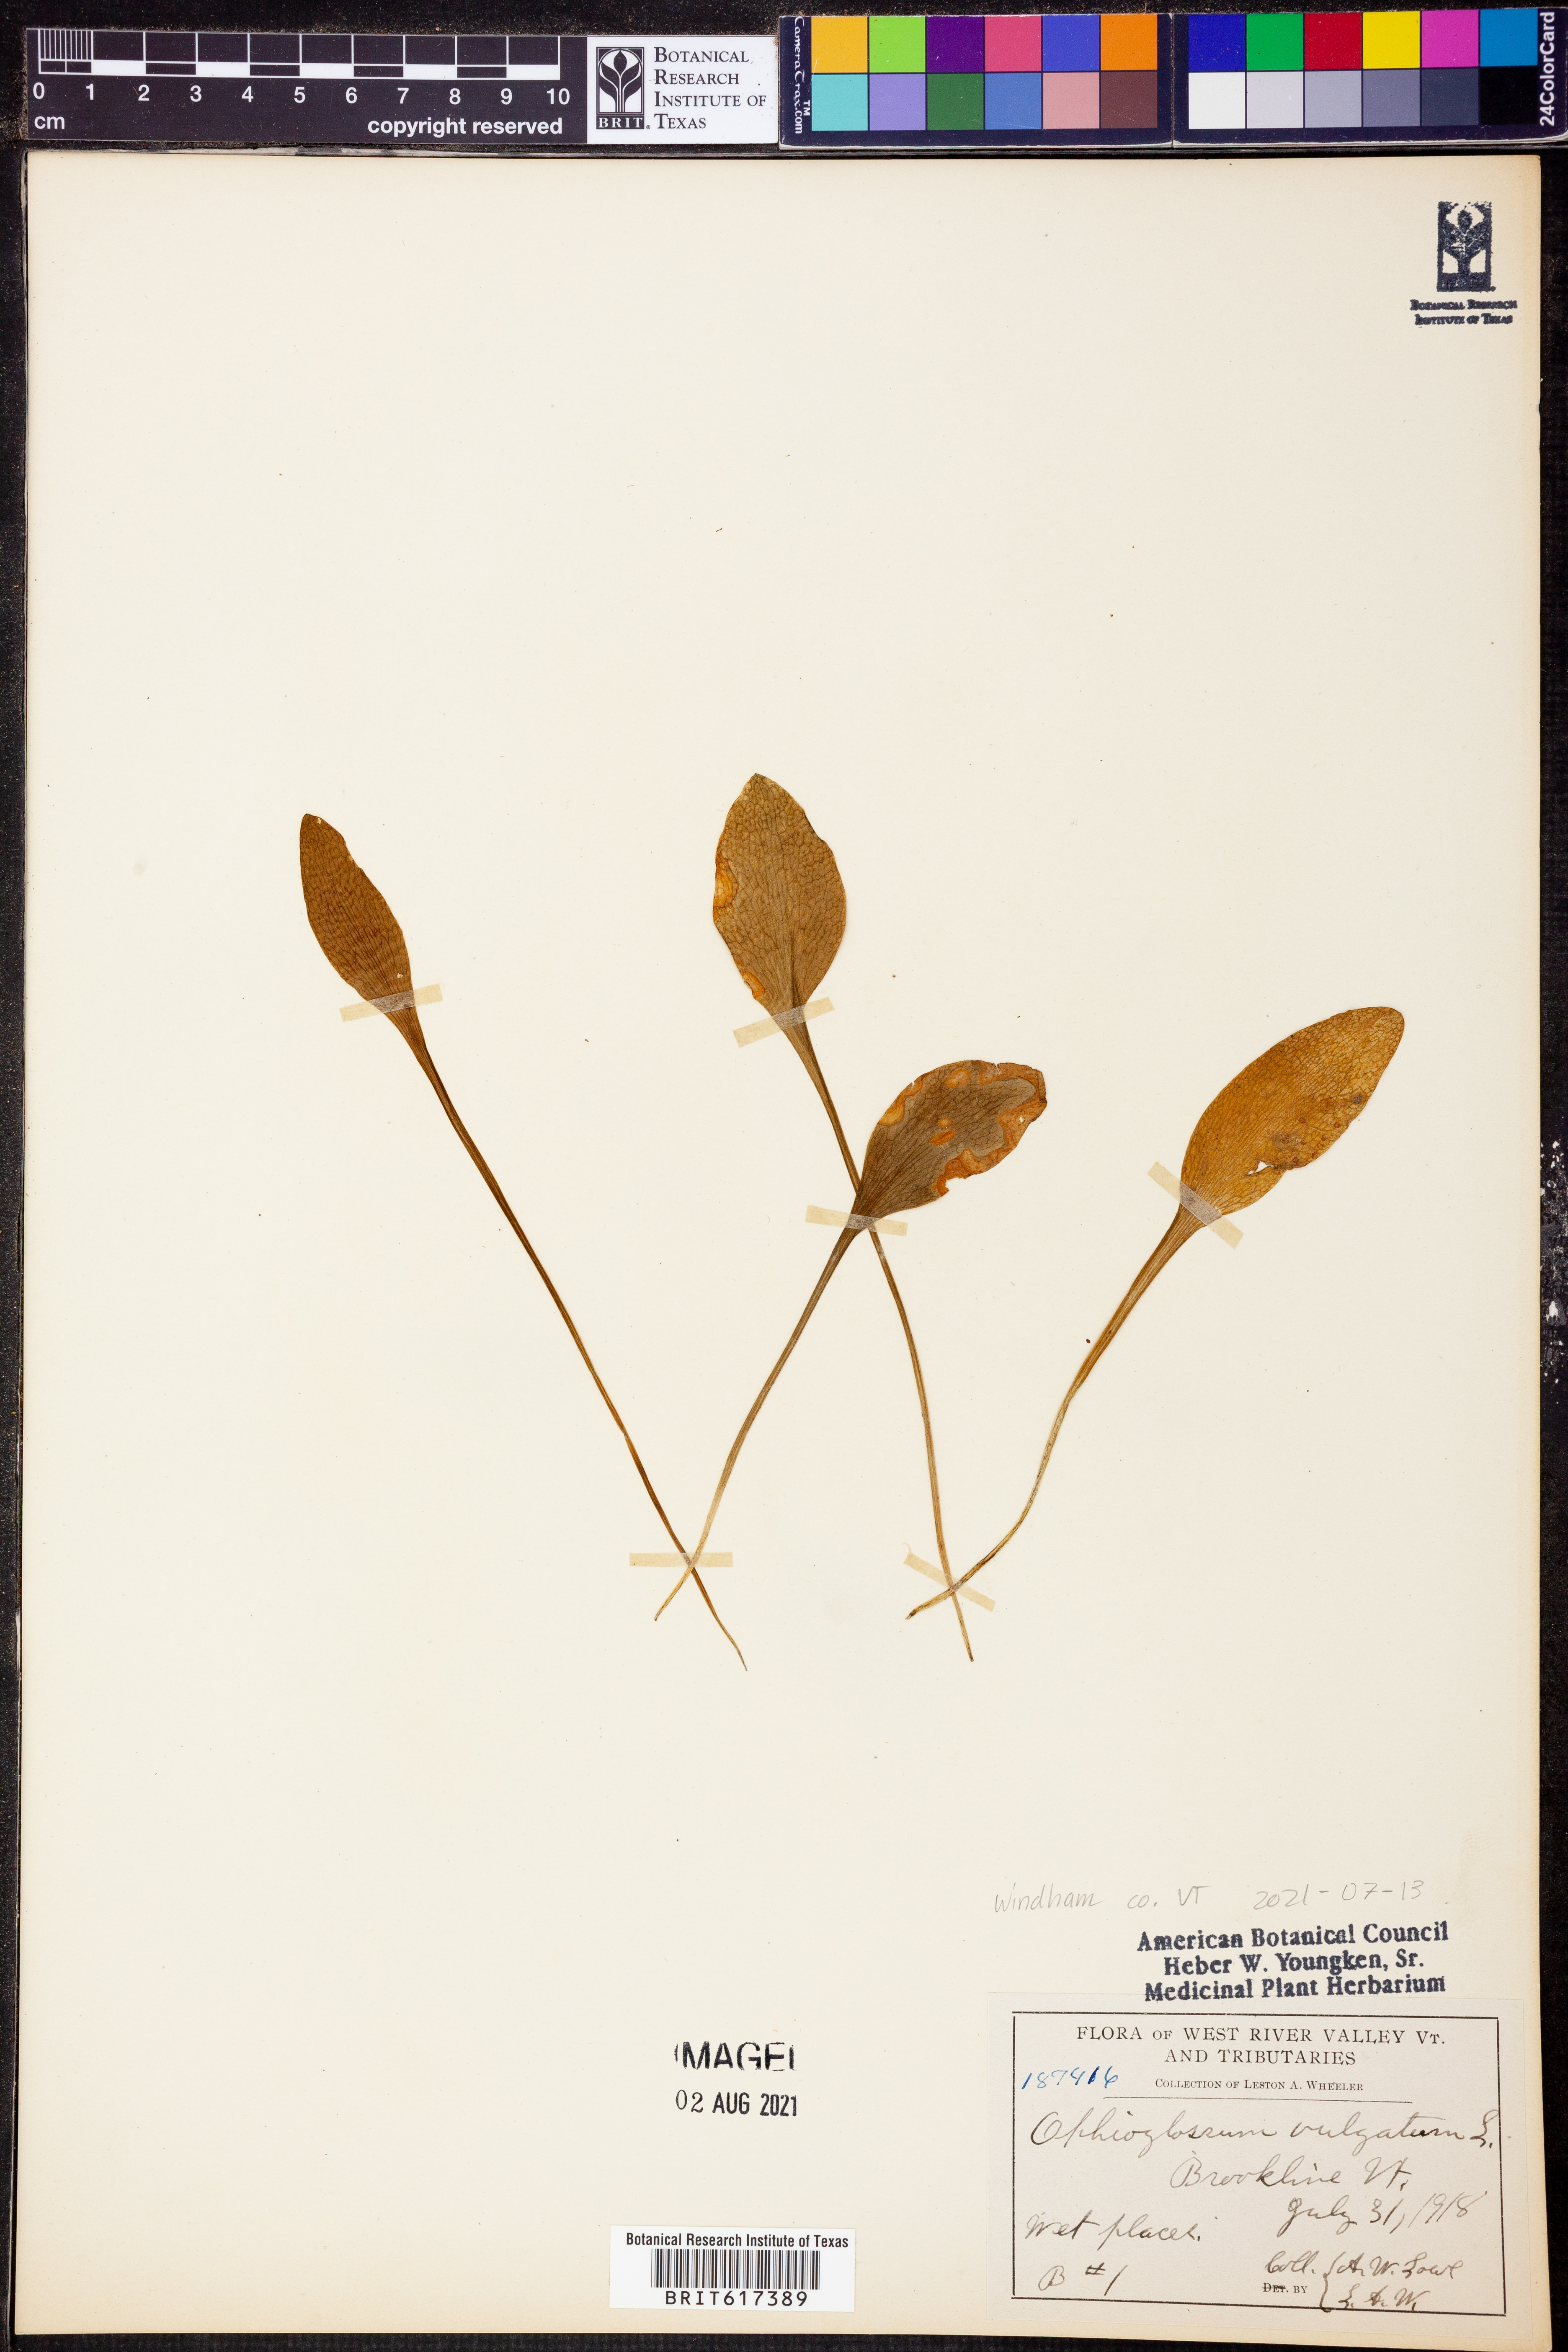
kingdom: Plantae
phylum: Tracheophyta
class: Polypodiopsida
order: Ophioglossales
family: Ophioglossaceae
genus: Ophioglossum
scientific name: Ophioglossum vulgatum
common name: Adder's-tongue
